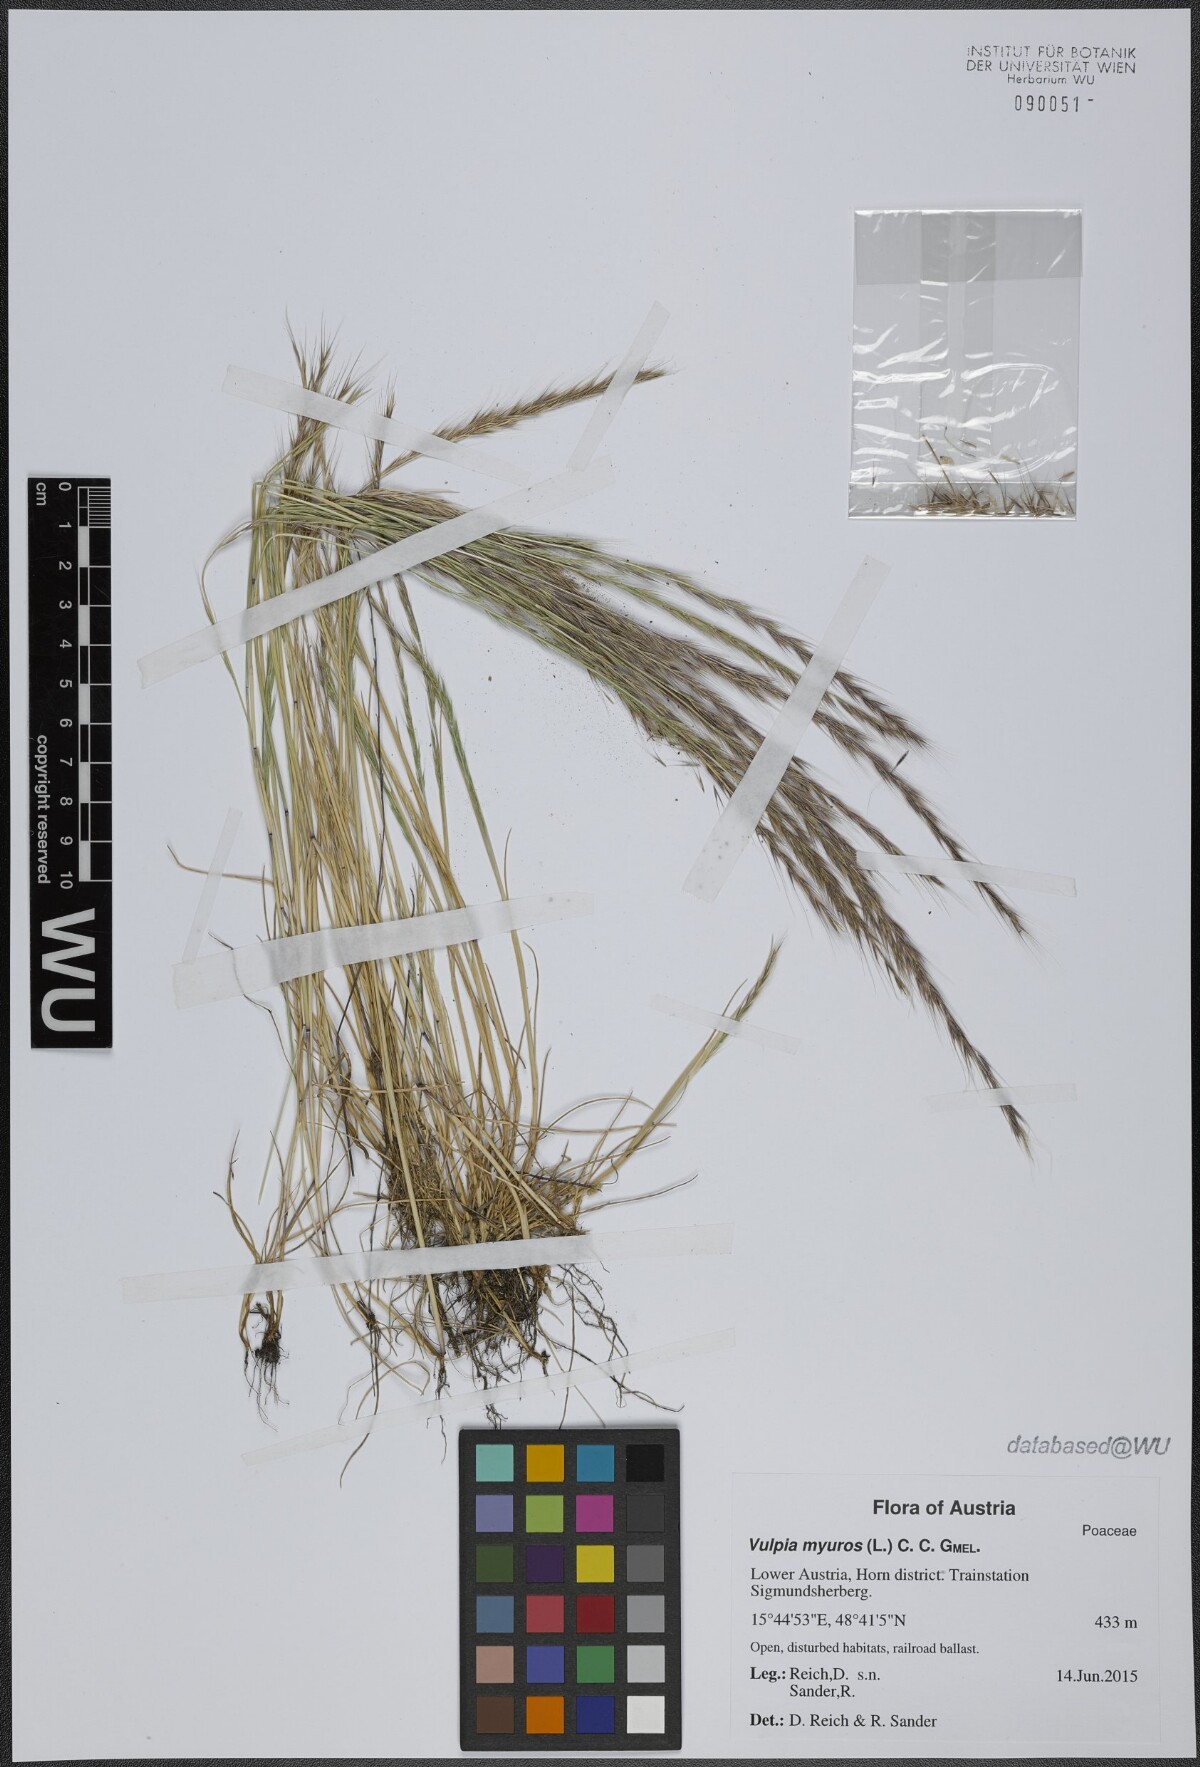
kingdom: Plantae
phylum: Tracheophyta
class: Liliopsida
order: Poales
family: Poaceae
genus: Festuca
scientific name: Festuca myuros
